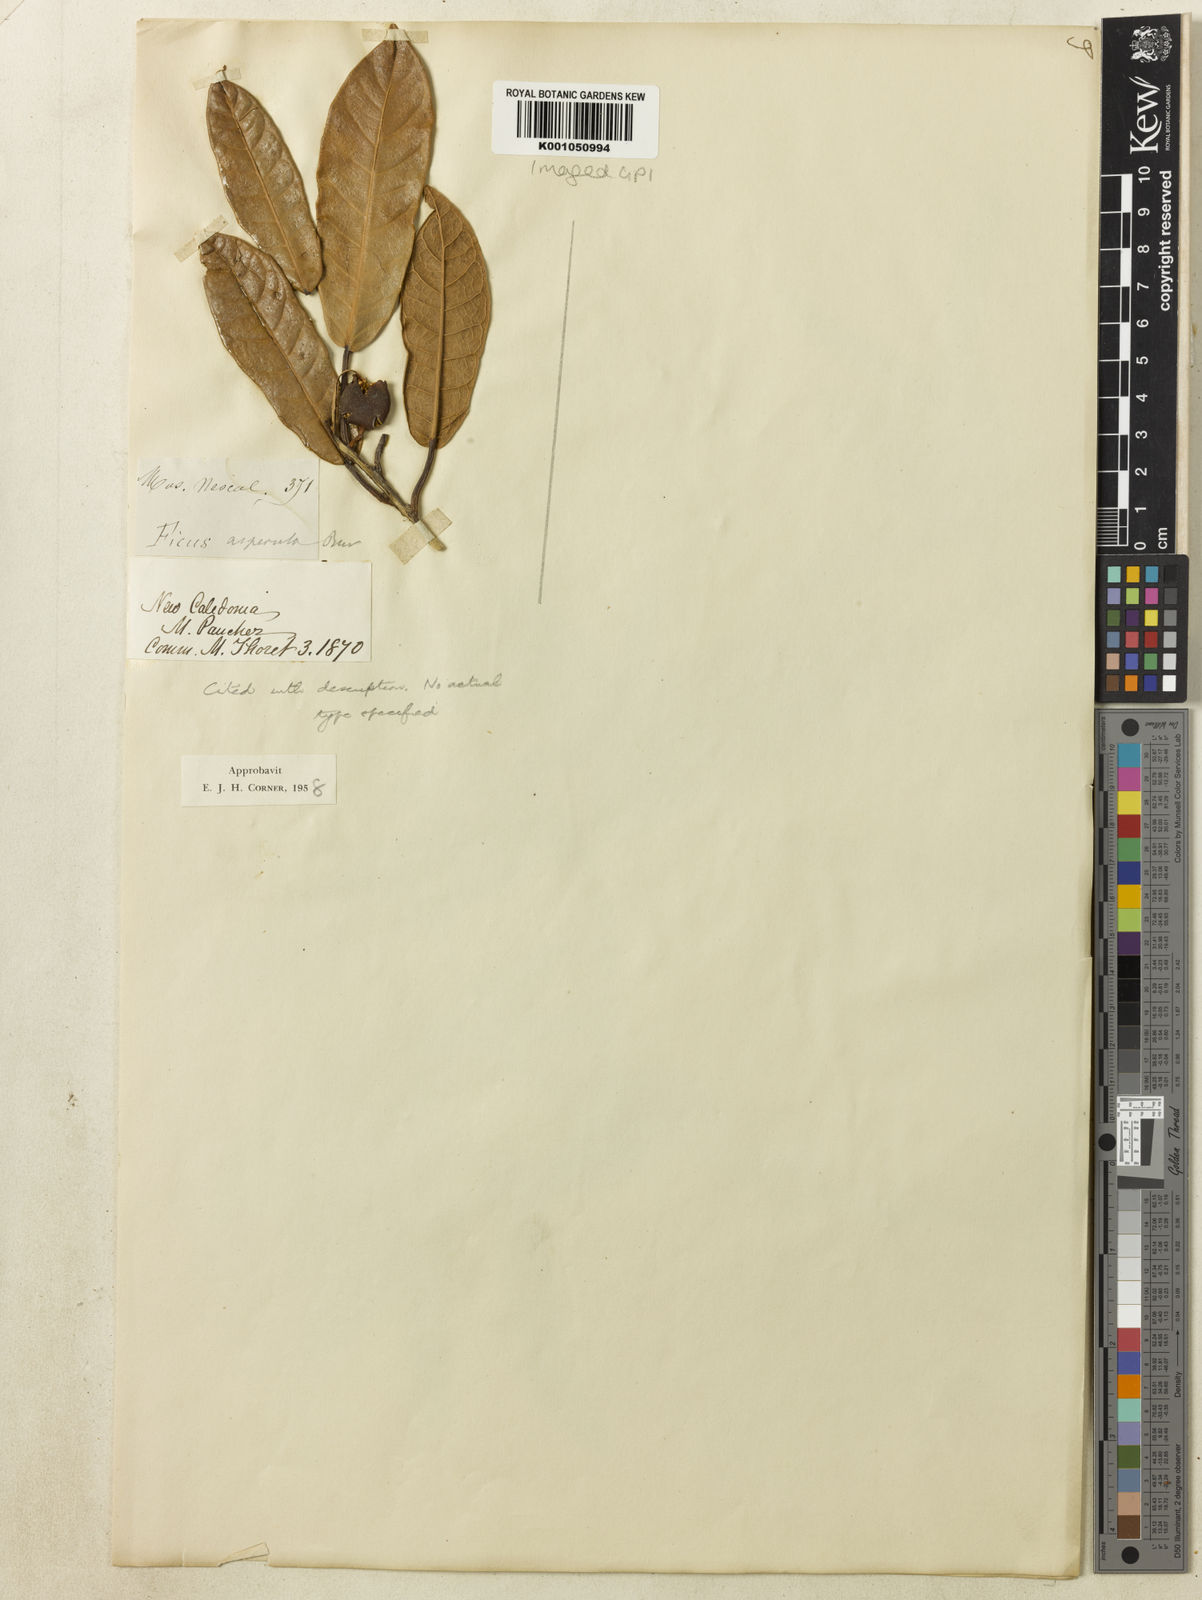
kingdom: Plantae
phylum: Tracheophyta
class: Magnoliopsida
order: Rosales
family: Moraceae
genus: Ficus
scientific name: Ficus aspera
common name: Mosaic fig
